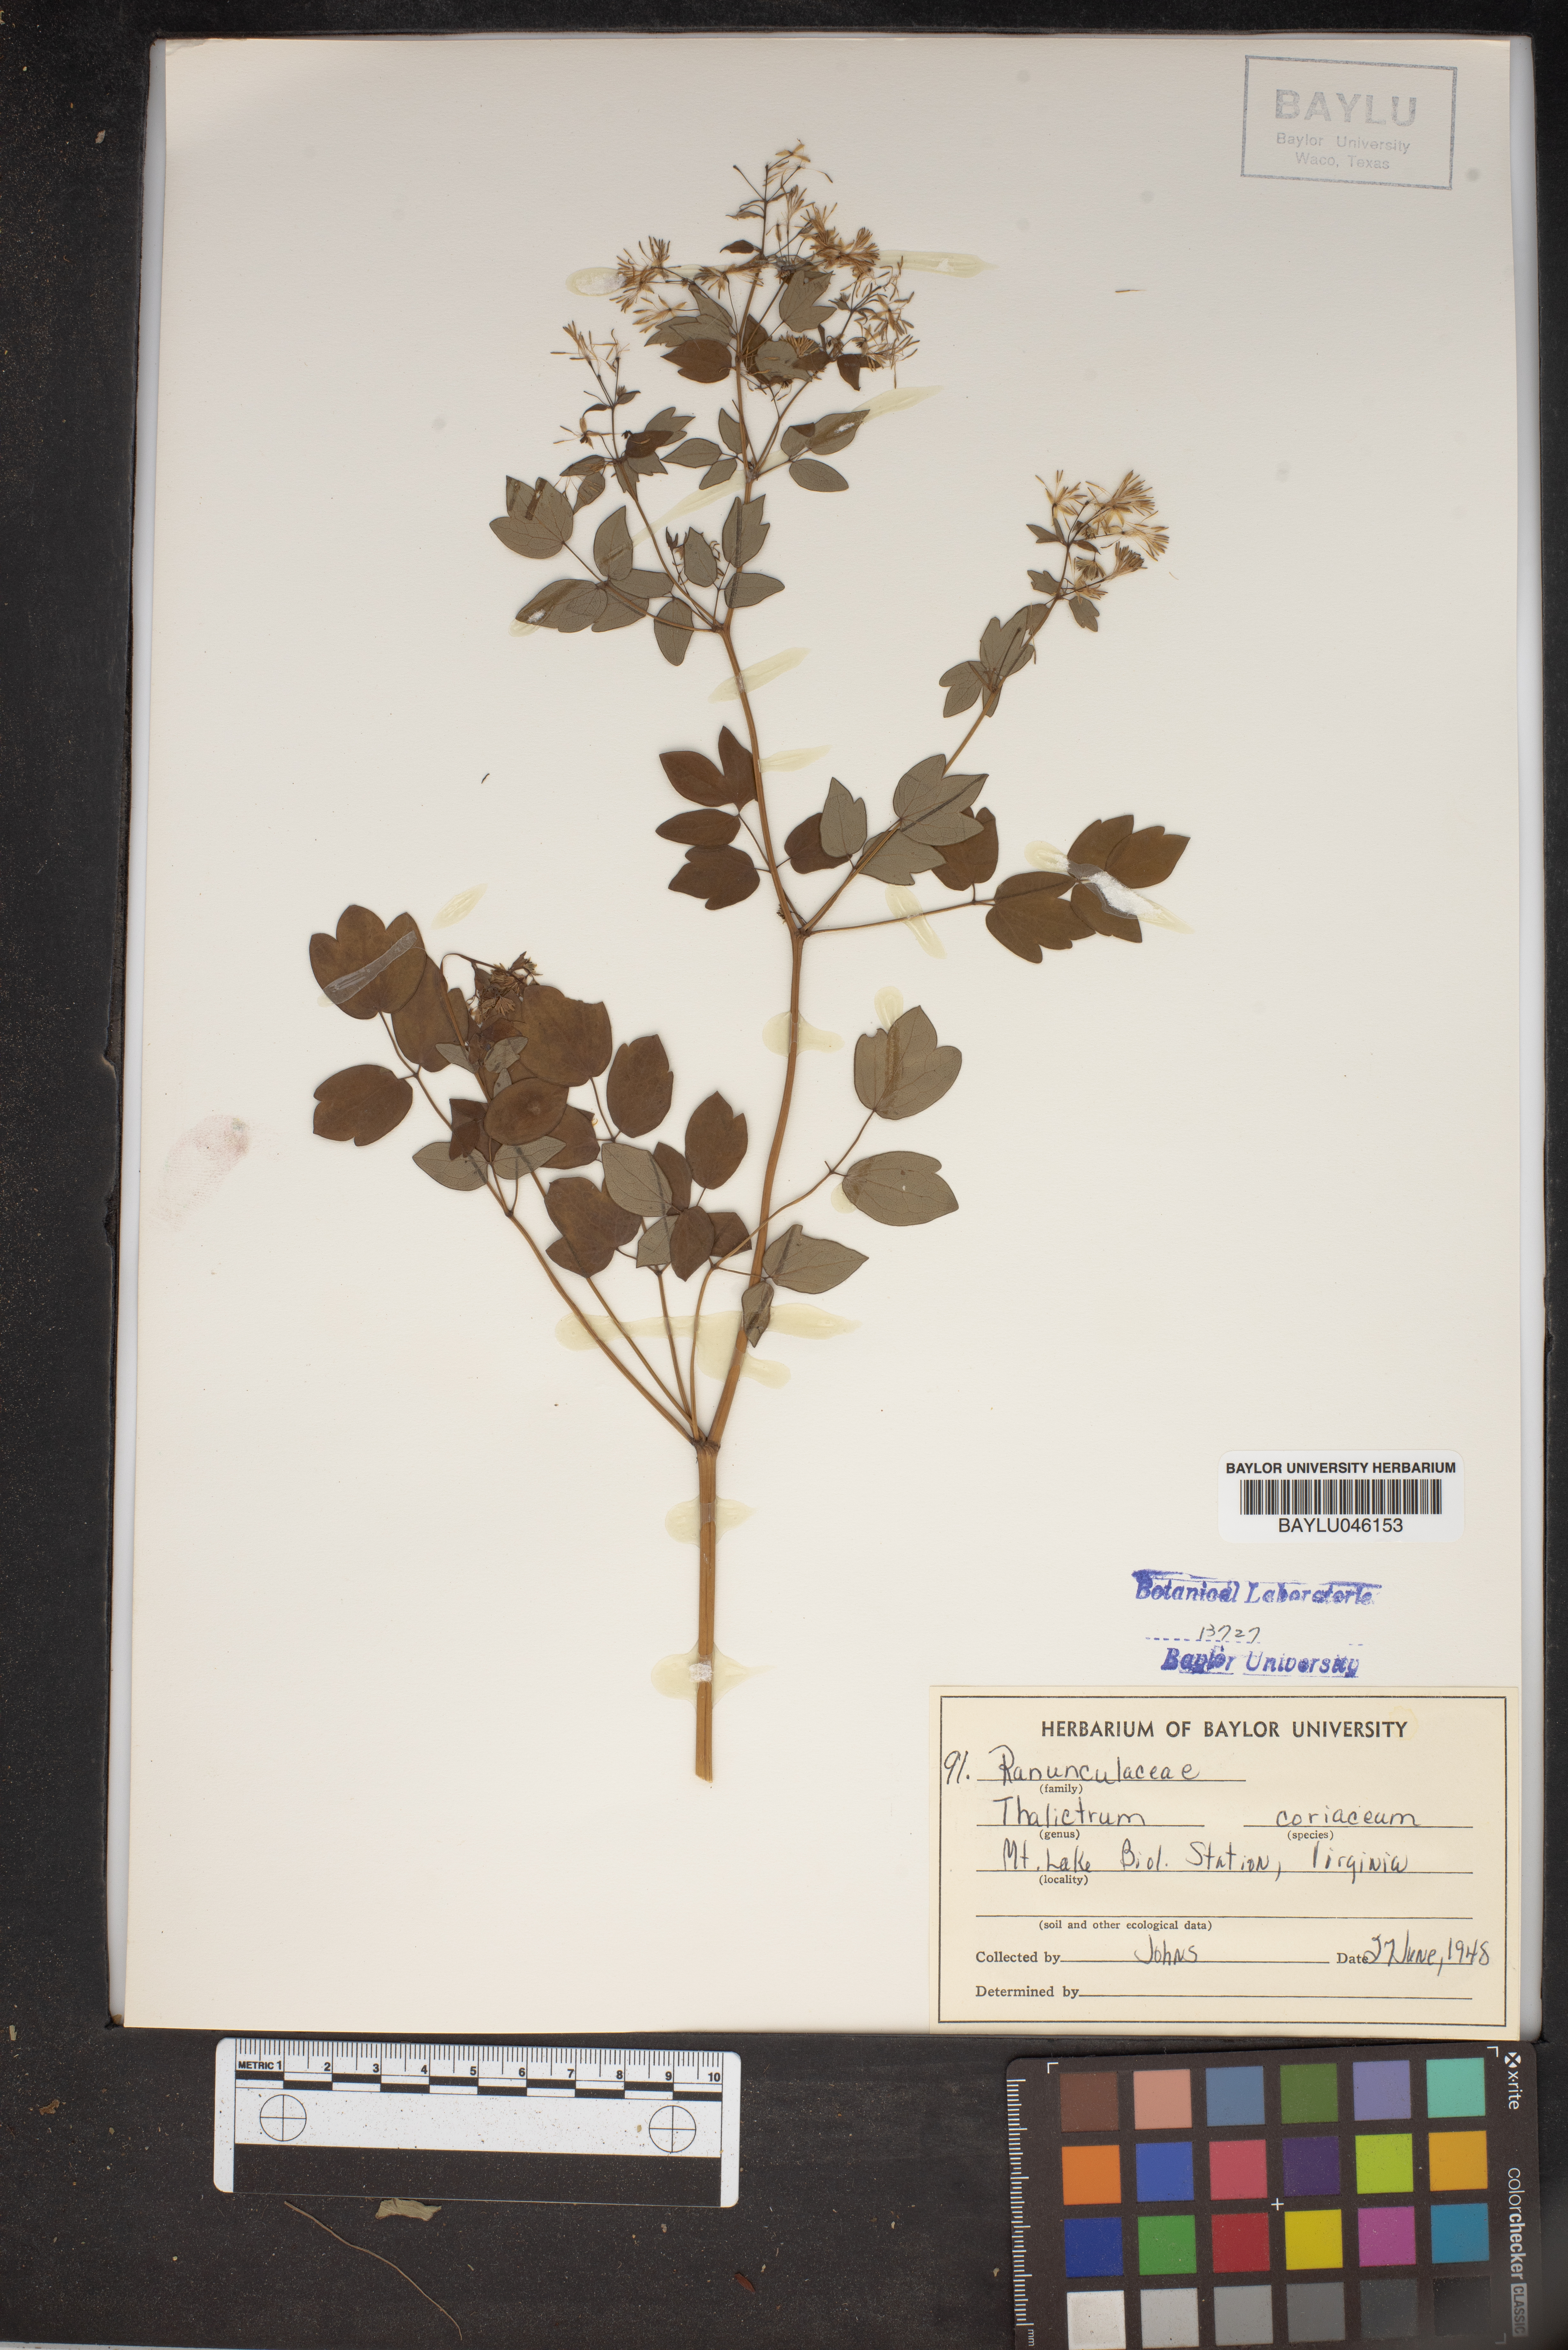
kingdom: Plantae
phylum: Tracheophyta
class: Magnoliopsida
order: Ranunculales
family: Ranunculaceae
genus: Thalictrum
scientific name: Thalictrum coriaceum
